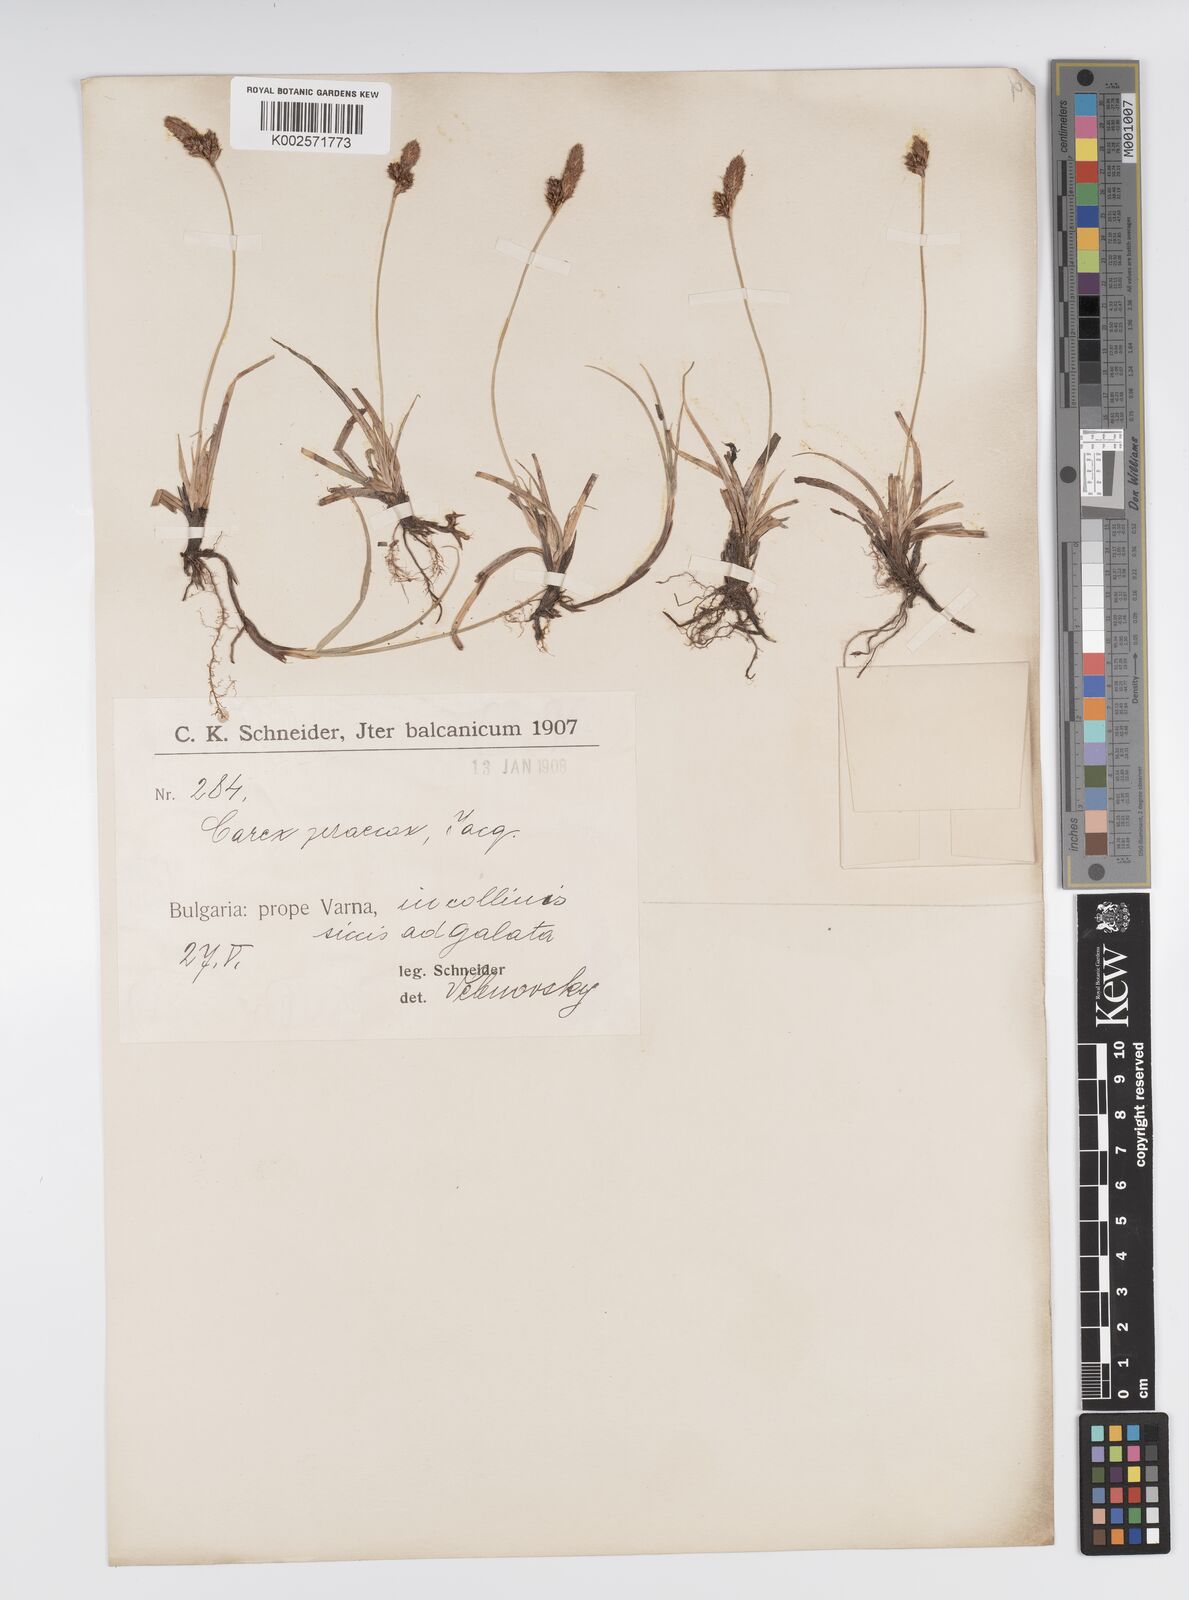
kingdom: Plantae
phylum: Tracheophyta
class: Liliopsida
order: Poales
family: Cyperaceae
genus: Carex
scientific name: Carex caryophyllea
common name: Spring sedge
